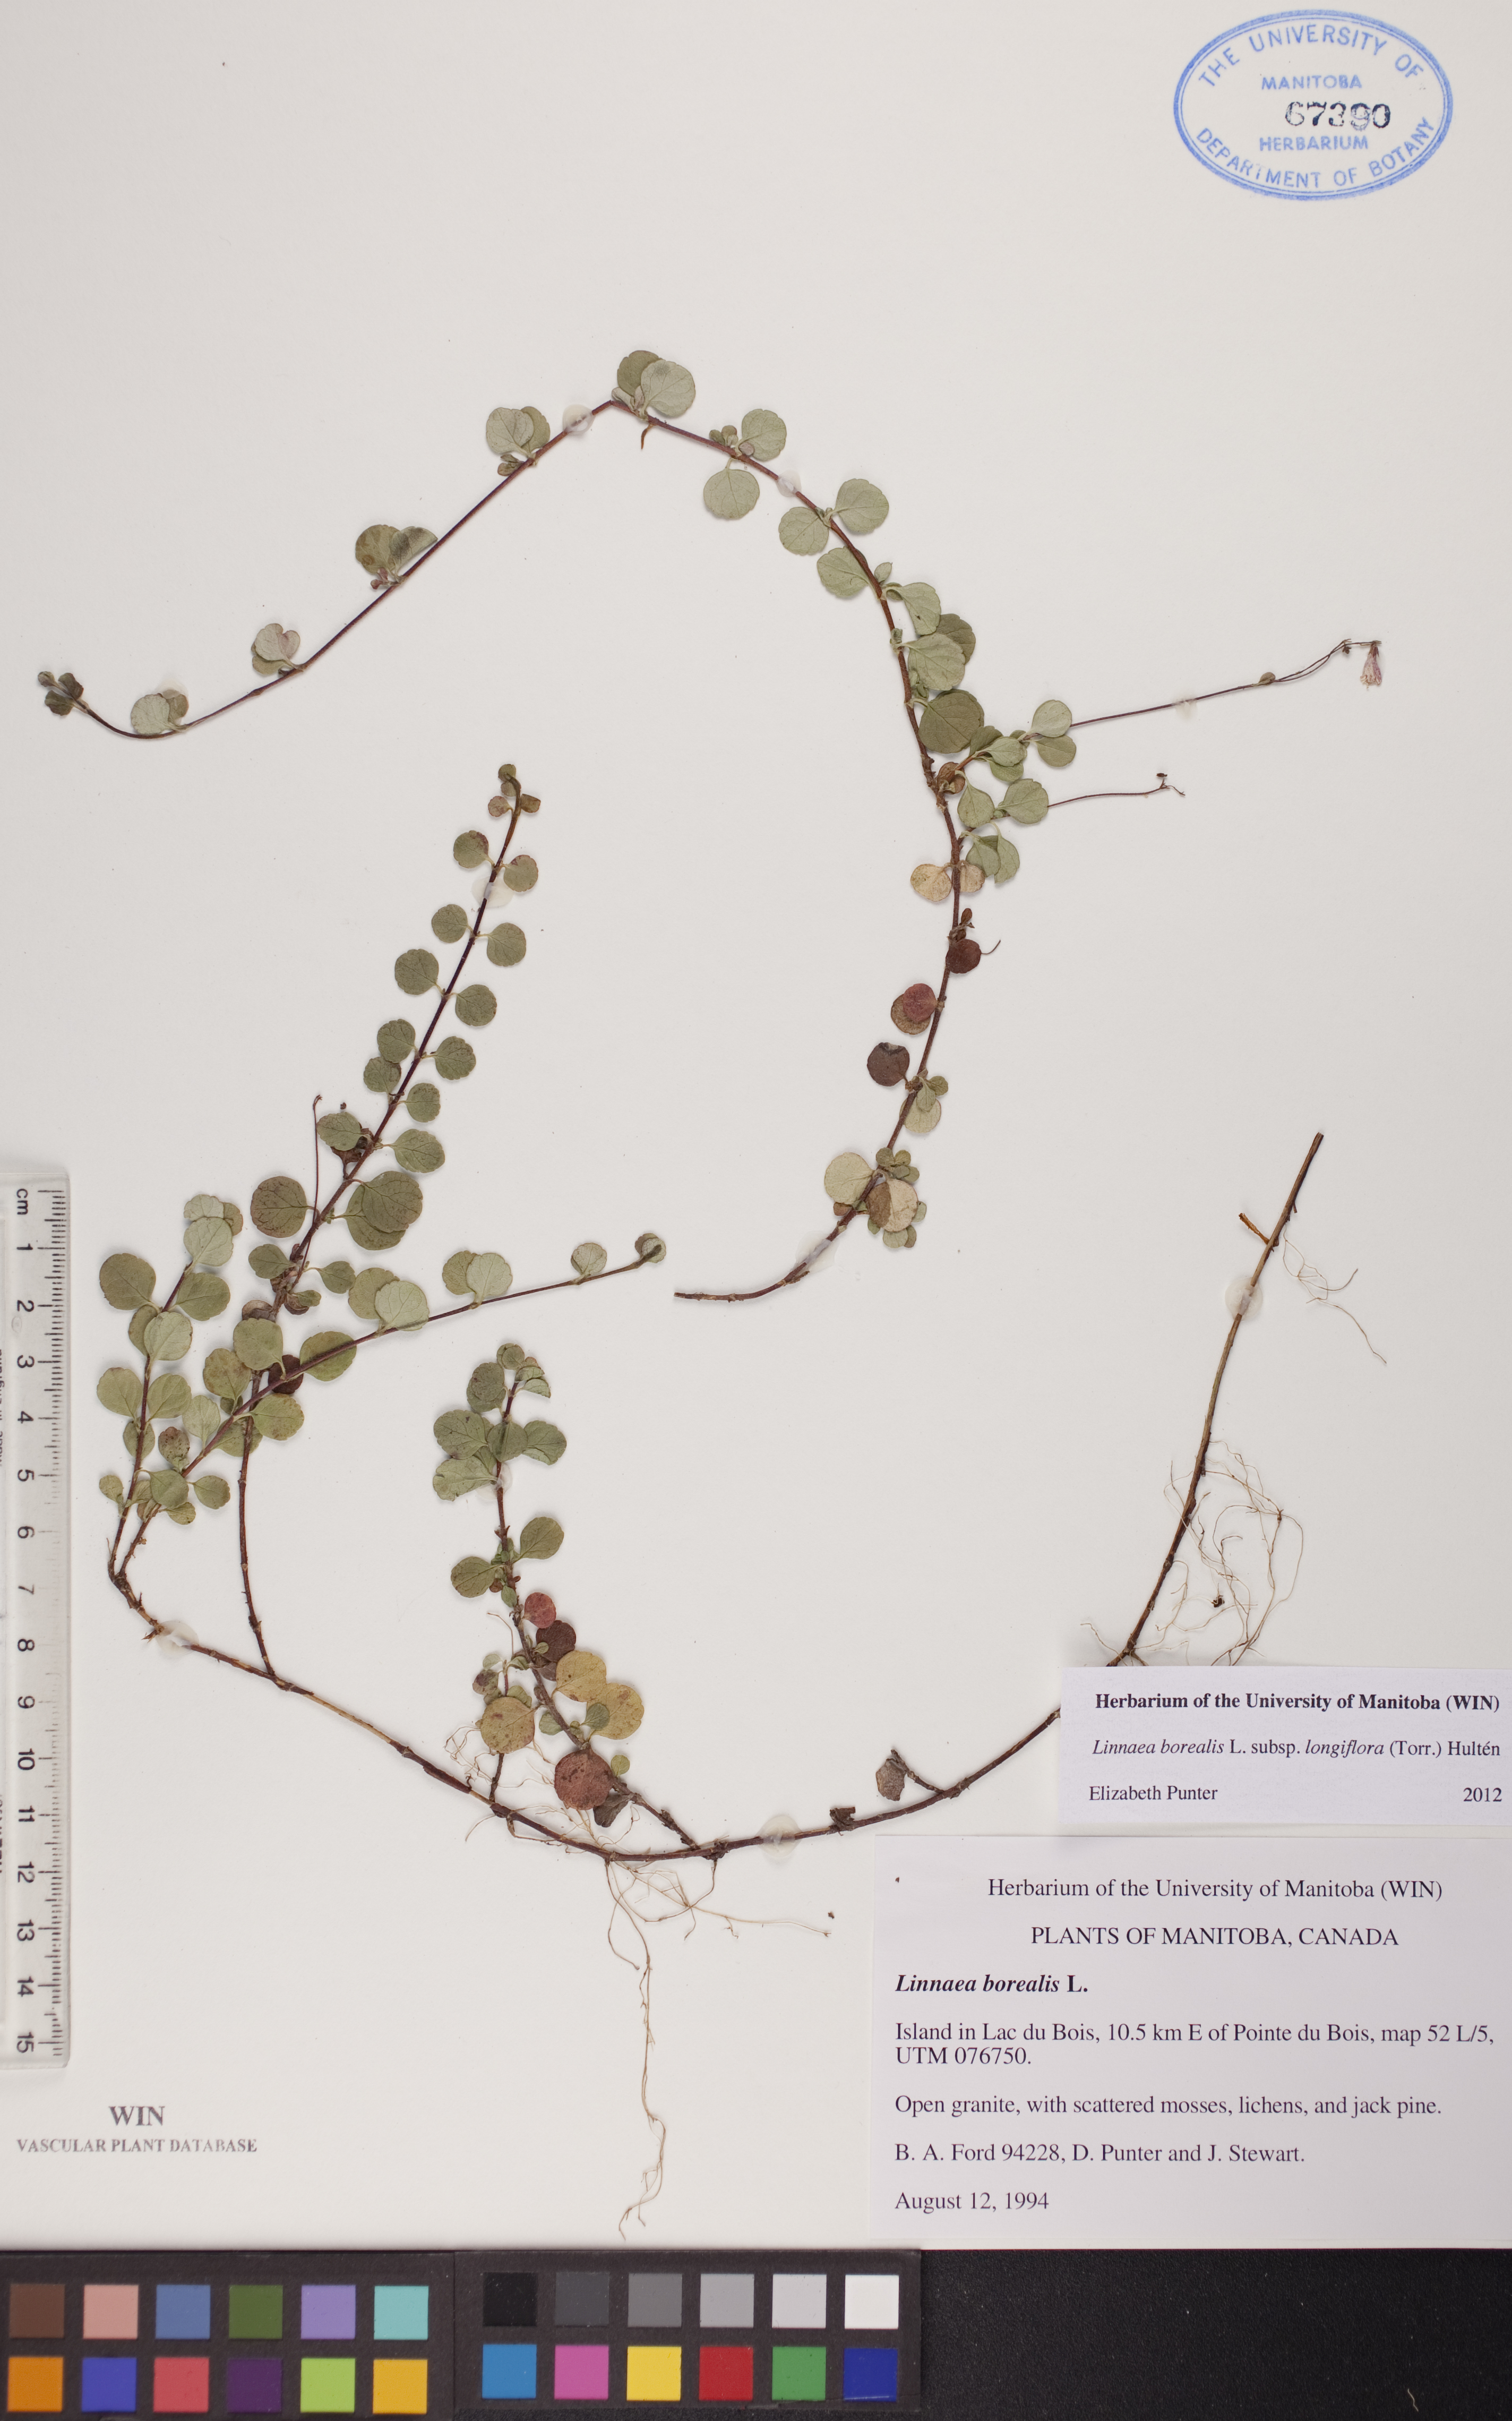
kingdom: Plantae
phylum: Tracheophyta
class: Magnoliopsida
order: Dipsacales
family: Caprifoliaceae
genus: Linnaea
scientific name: Linnaea borealis
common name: Twinflower
